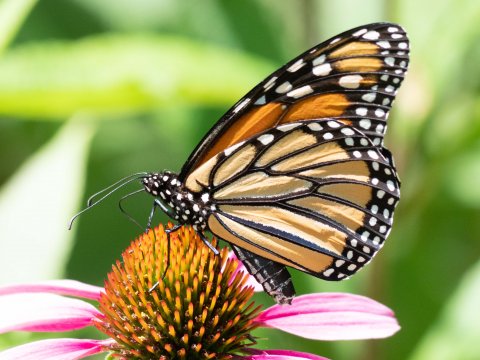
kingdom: Animalia
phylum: Arthropoda
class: Insecta
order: Lepidoptera
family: Nymphalidae
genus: Danaus
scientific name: Danaus plexippus
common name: Monarch
